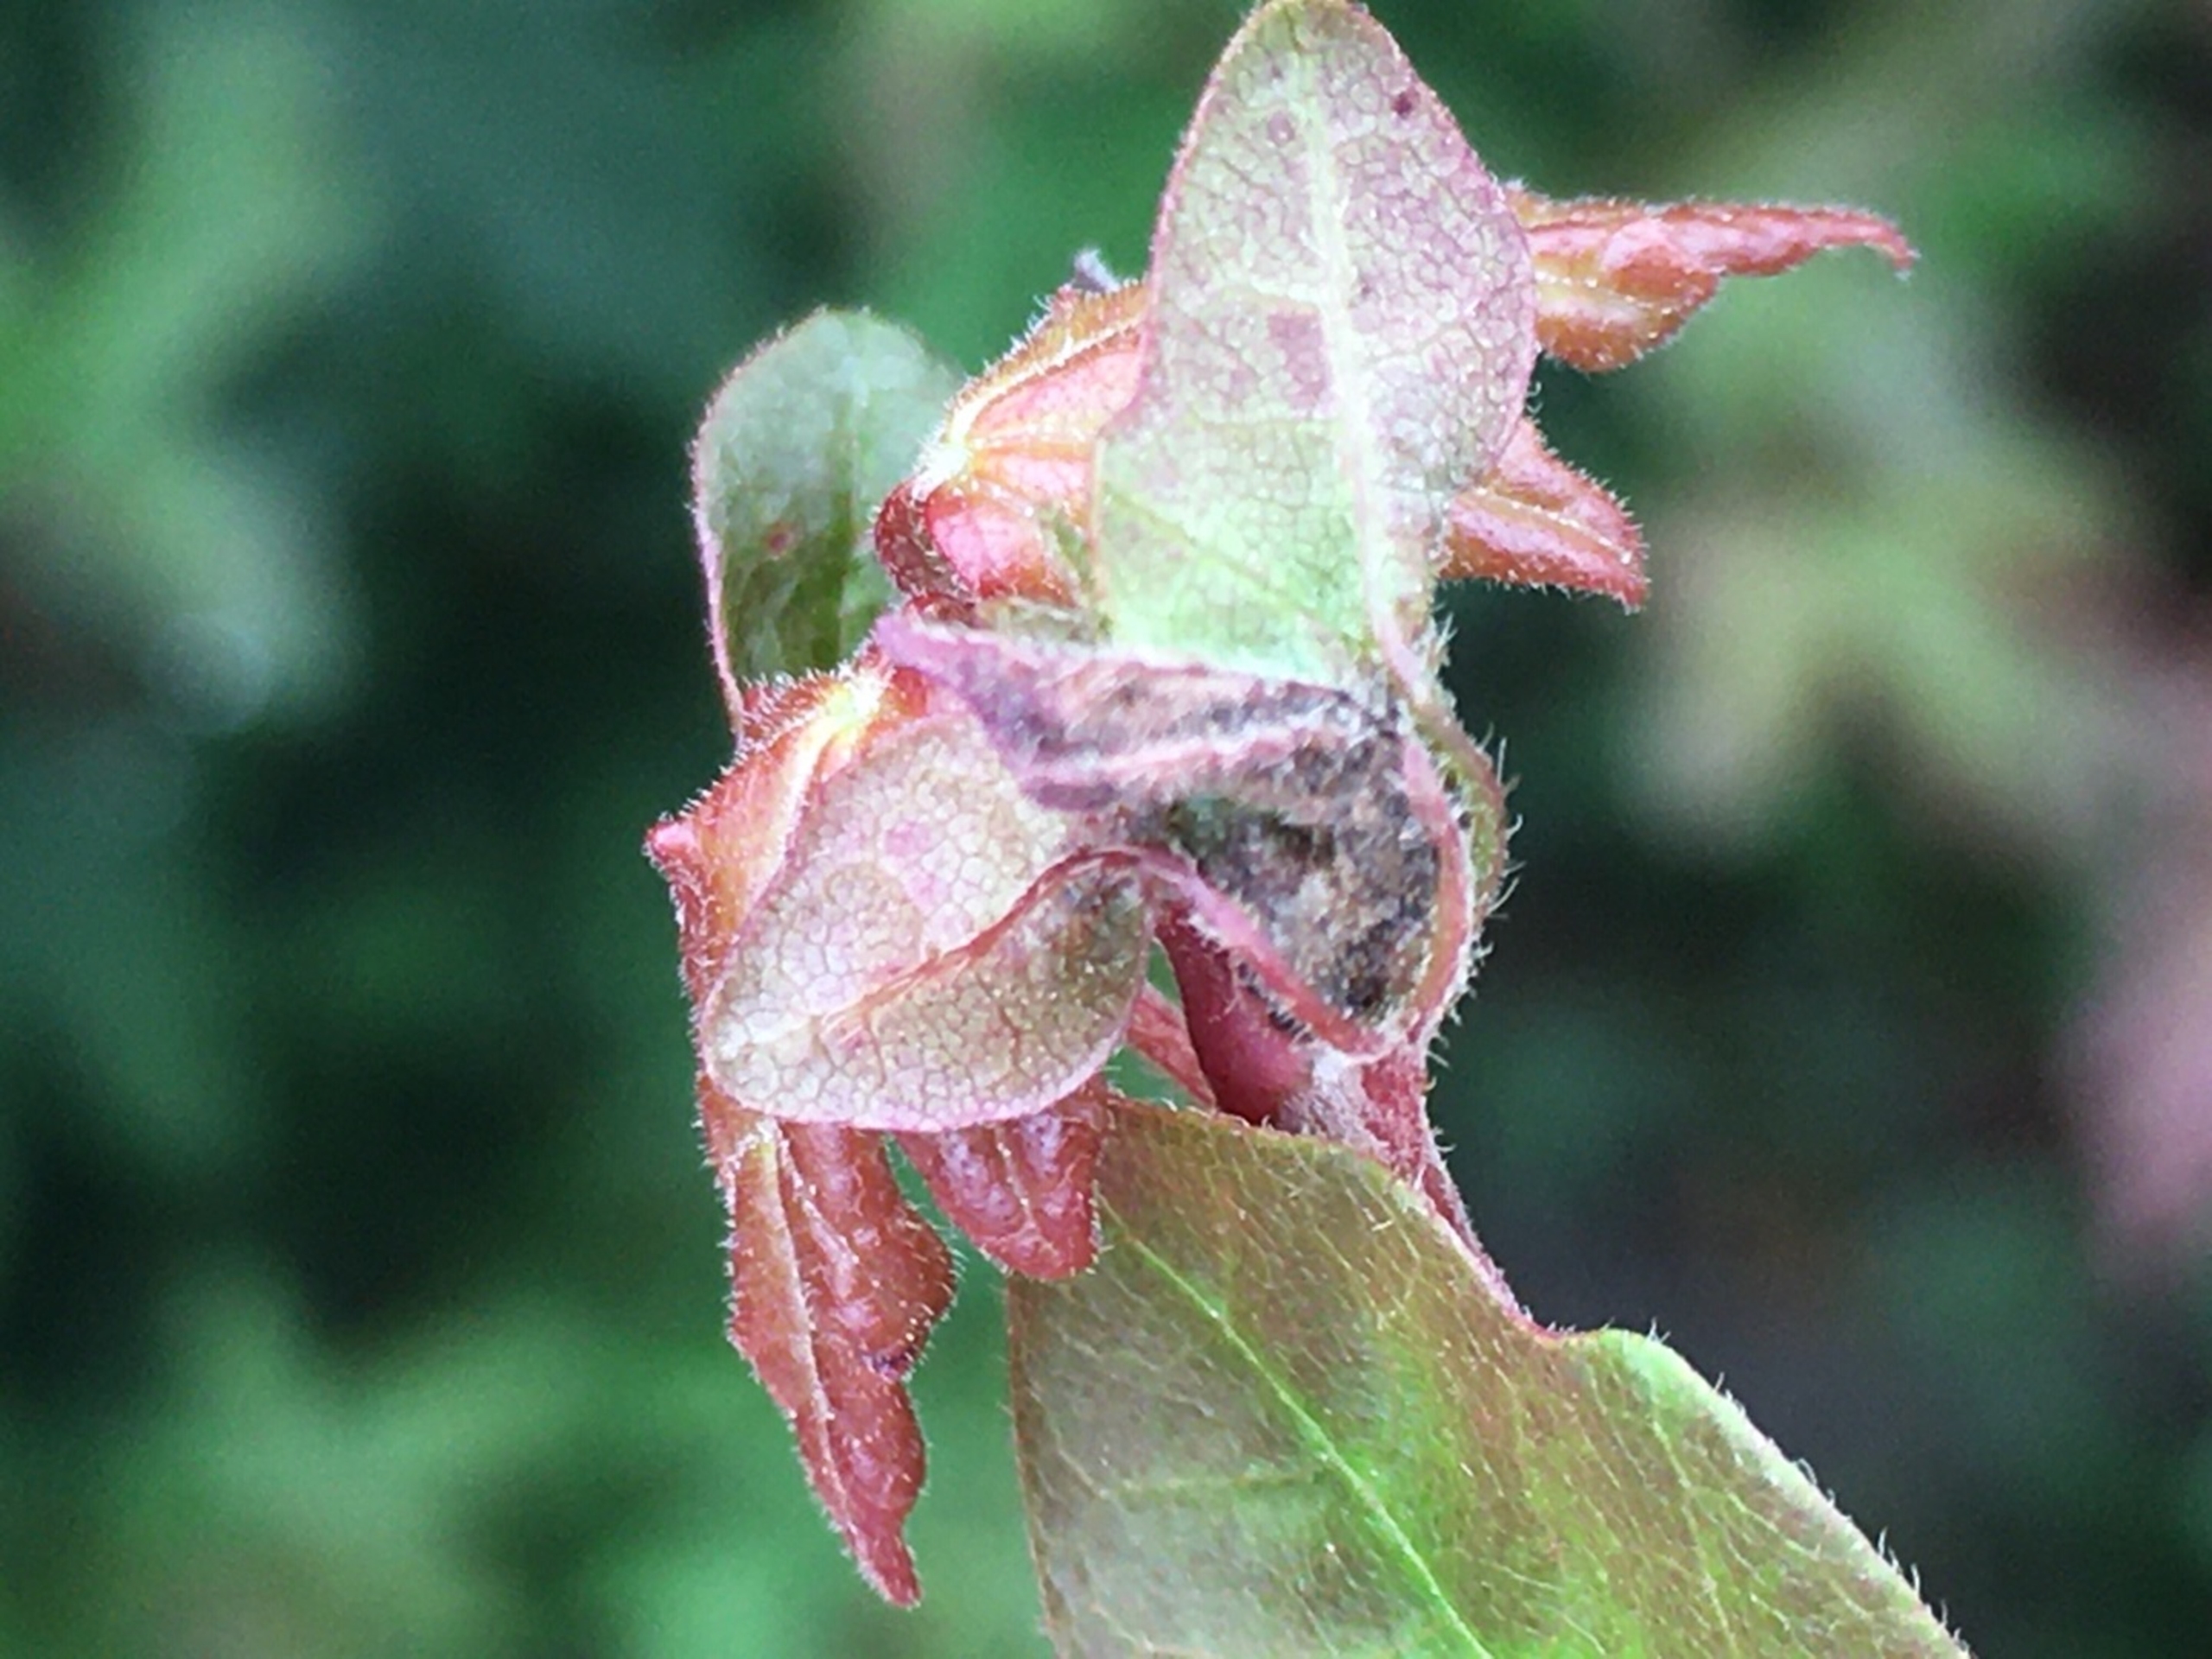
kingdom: Animalia
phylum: Arthropoda
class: Insecta
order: Diptera
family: Cecidomyiidae
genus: Dasineura
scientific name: Dasineura rubella
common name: Navrkrusegalmyg
